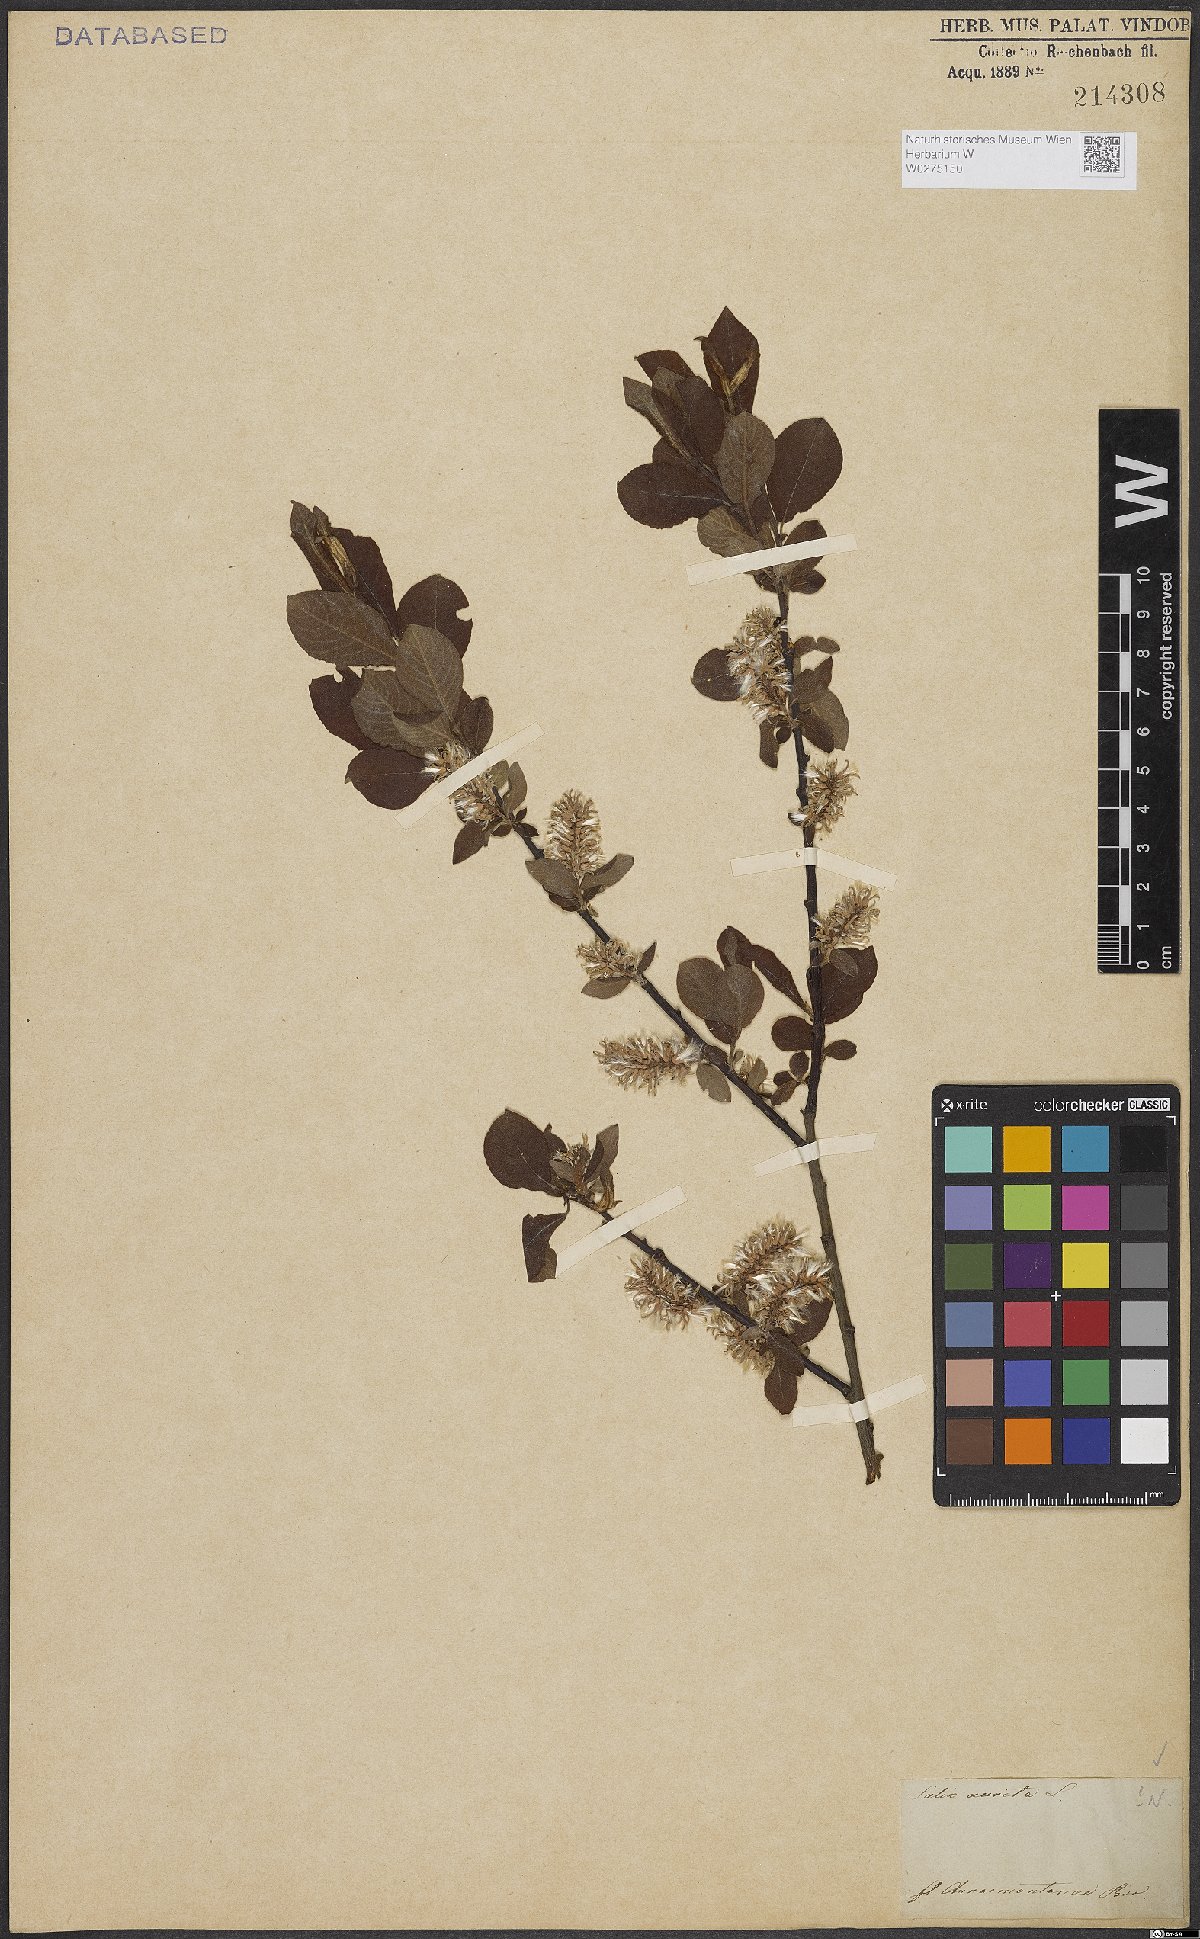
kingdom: Plantae
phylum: Tracheophyta
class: Magnoliopsida
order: Malpighiales
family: Salicaceae
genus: Salix
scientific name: Salix aurita
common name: Eared willow
